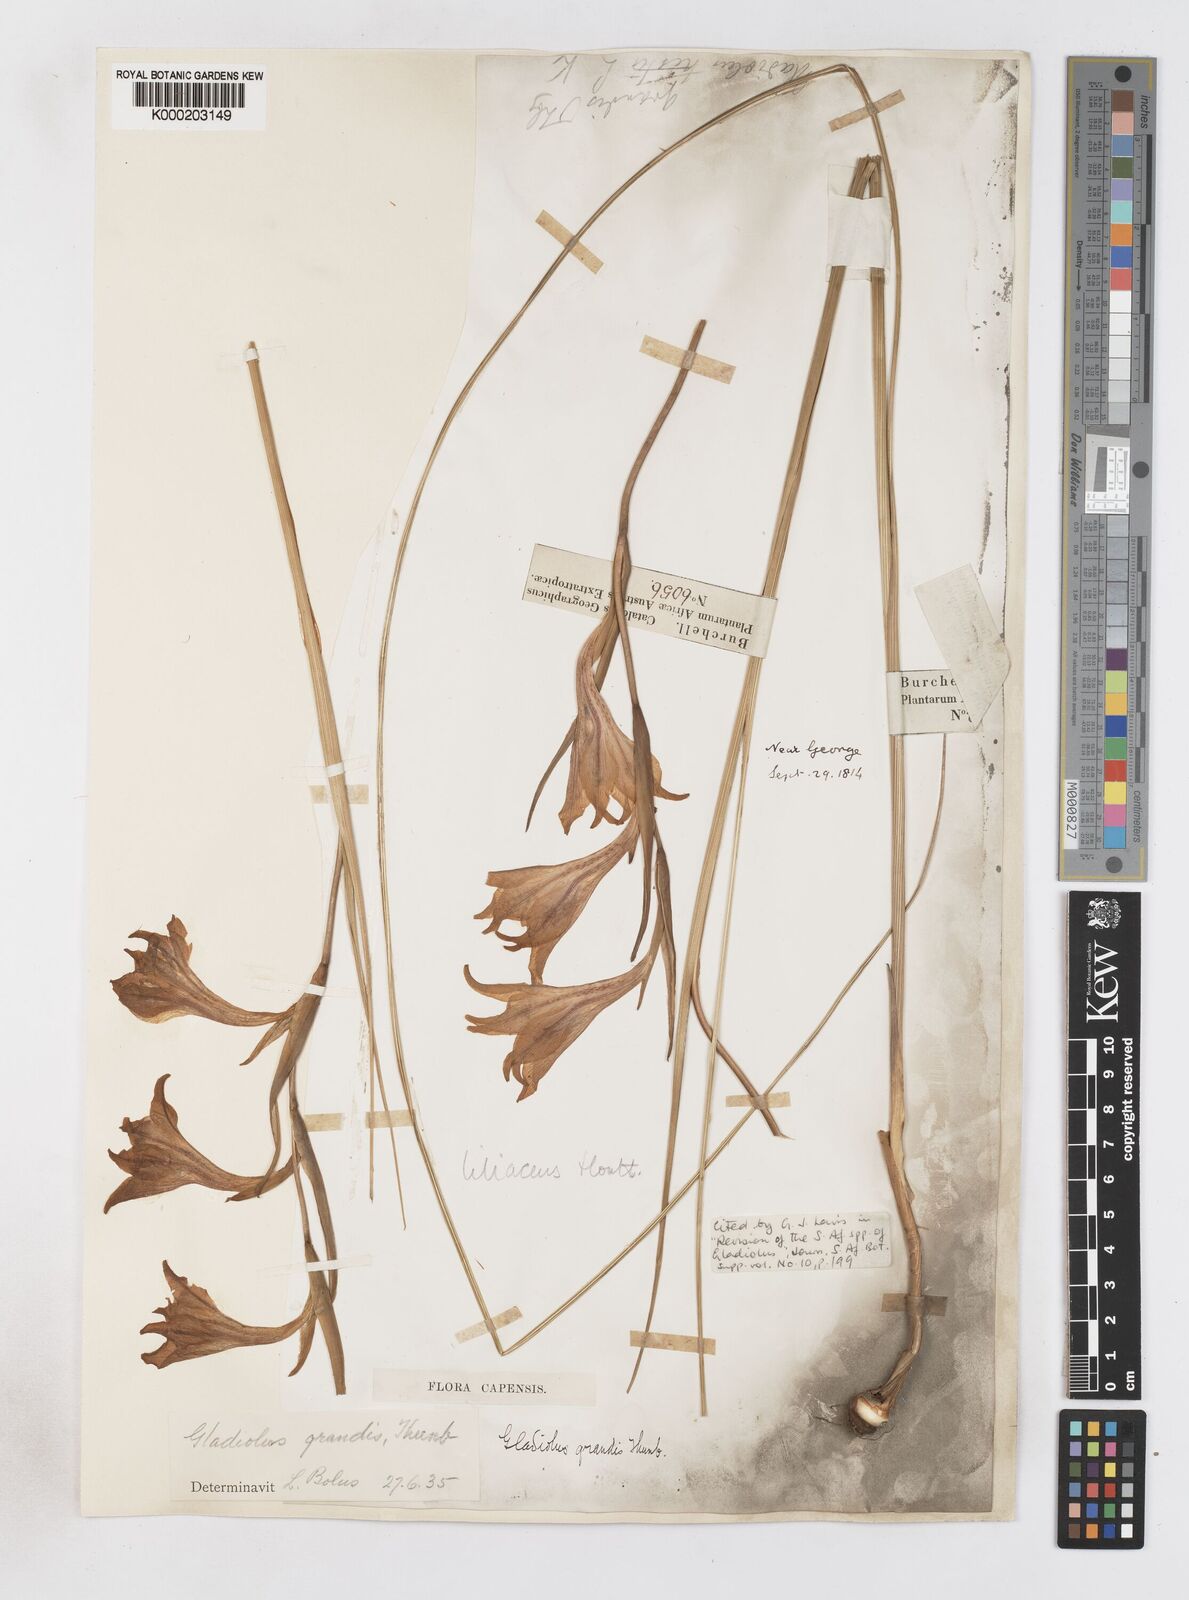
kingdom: Plantae
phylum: Tracheophyta
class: Liliopsida
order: Asparagales
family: Iridaceae
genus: Gladiolus
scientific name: Gladiolus liliaceus
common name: Large brown afrikaner
